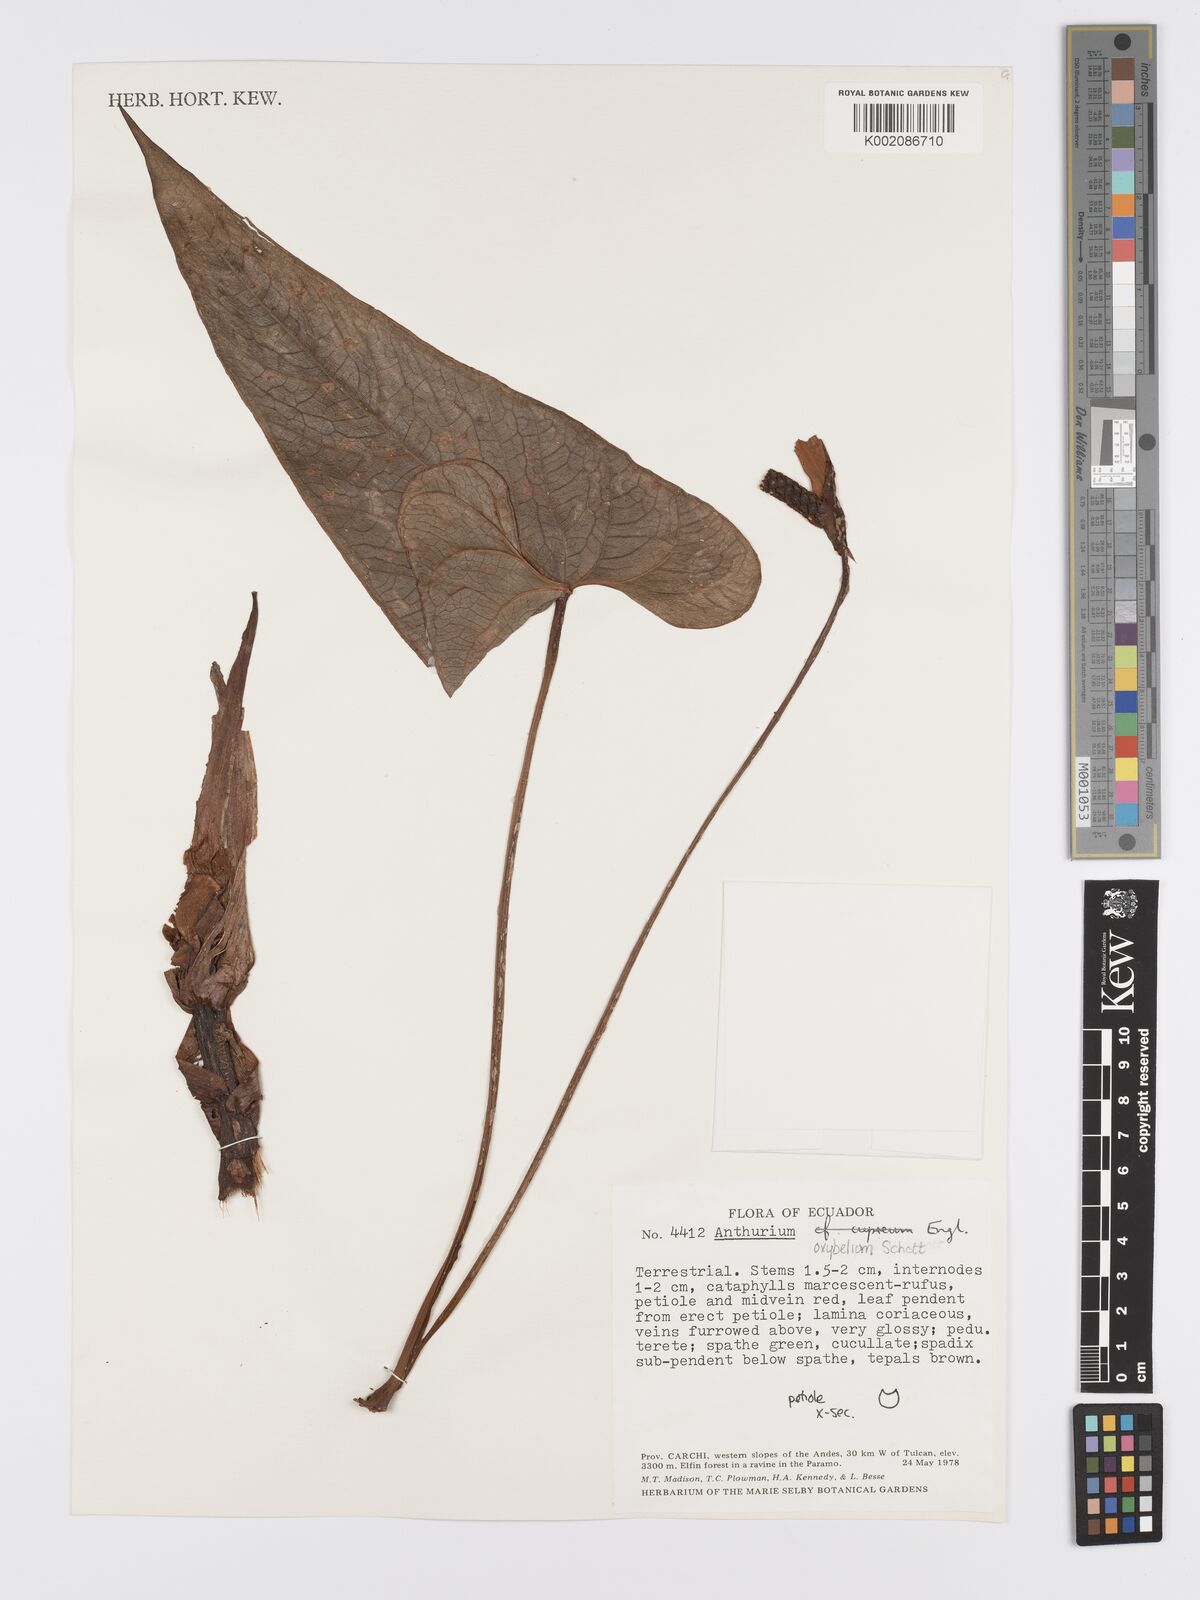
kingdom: Plantae
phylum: Tracheophyta
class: Liliopsida
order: Alismatales
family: Araceae
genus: Anthurium
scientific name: Anthurium oxybelium
